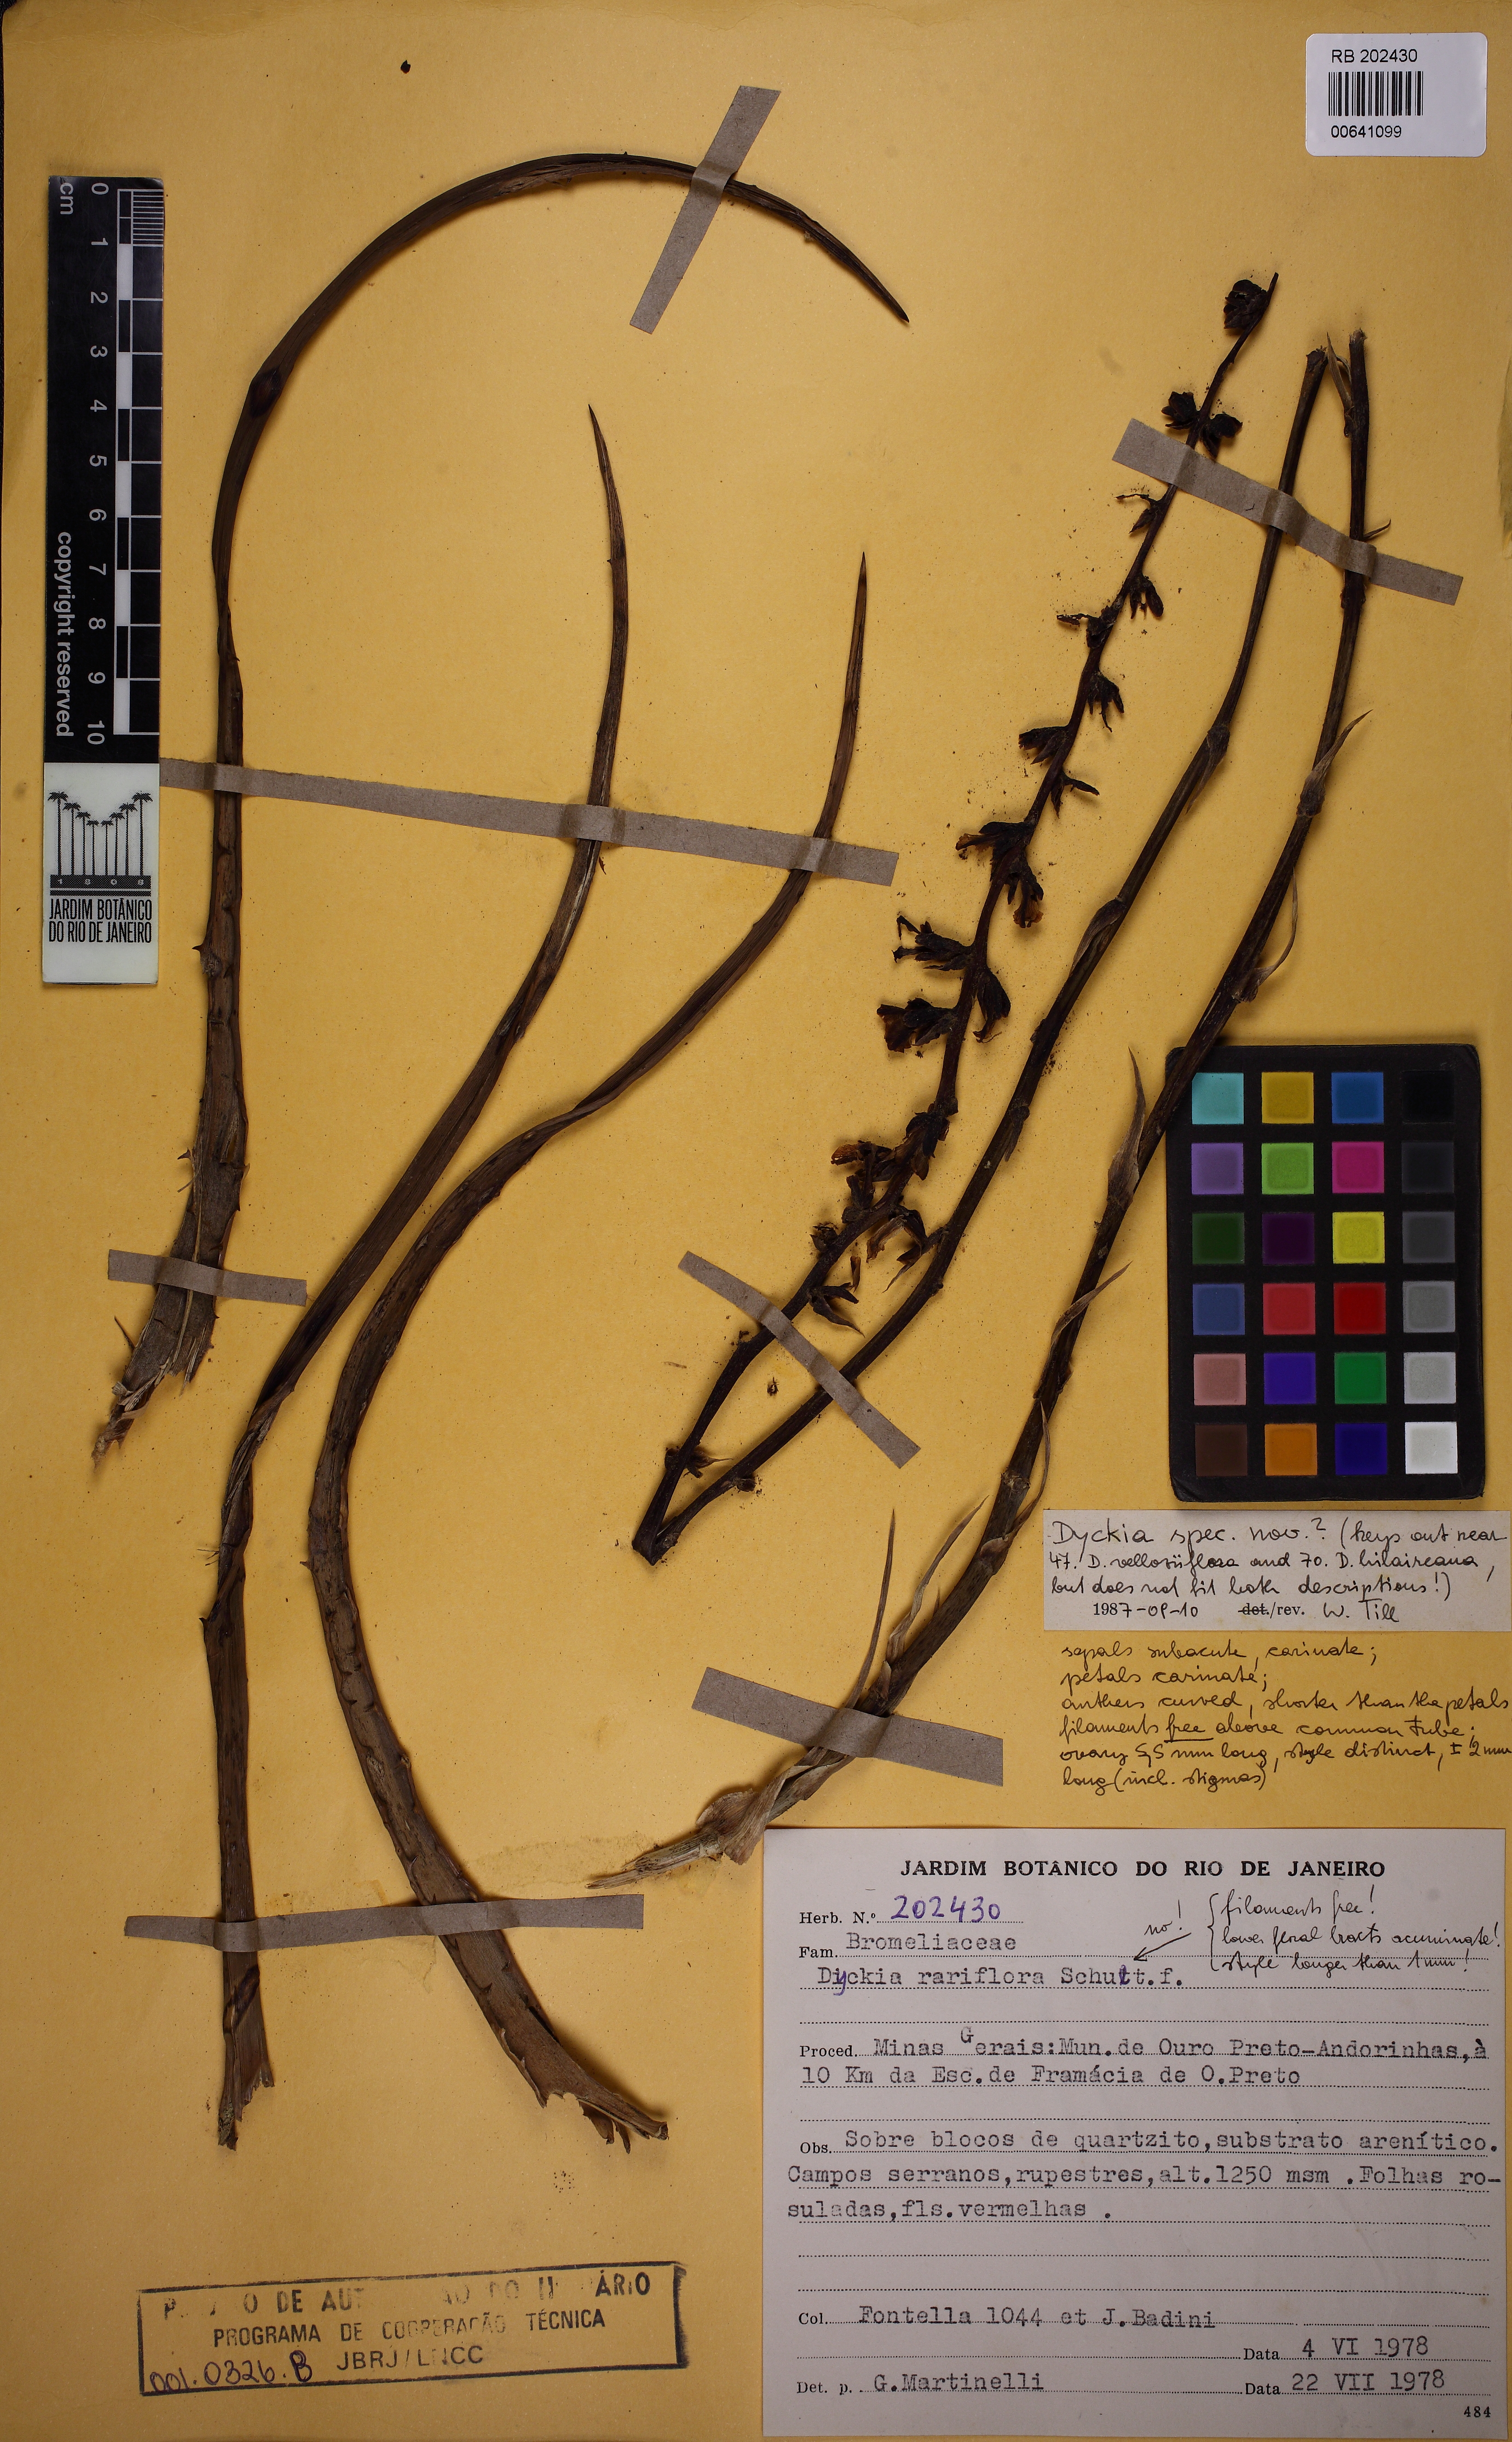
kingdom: Plantae
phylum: Tracheophyta
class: Liliopsida
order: Poales
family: Bromeliaceae
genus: Dyckia
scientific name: Dyckia rariflora
